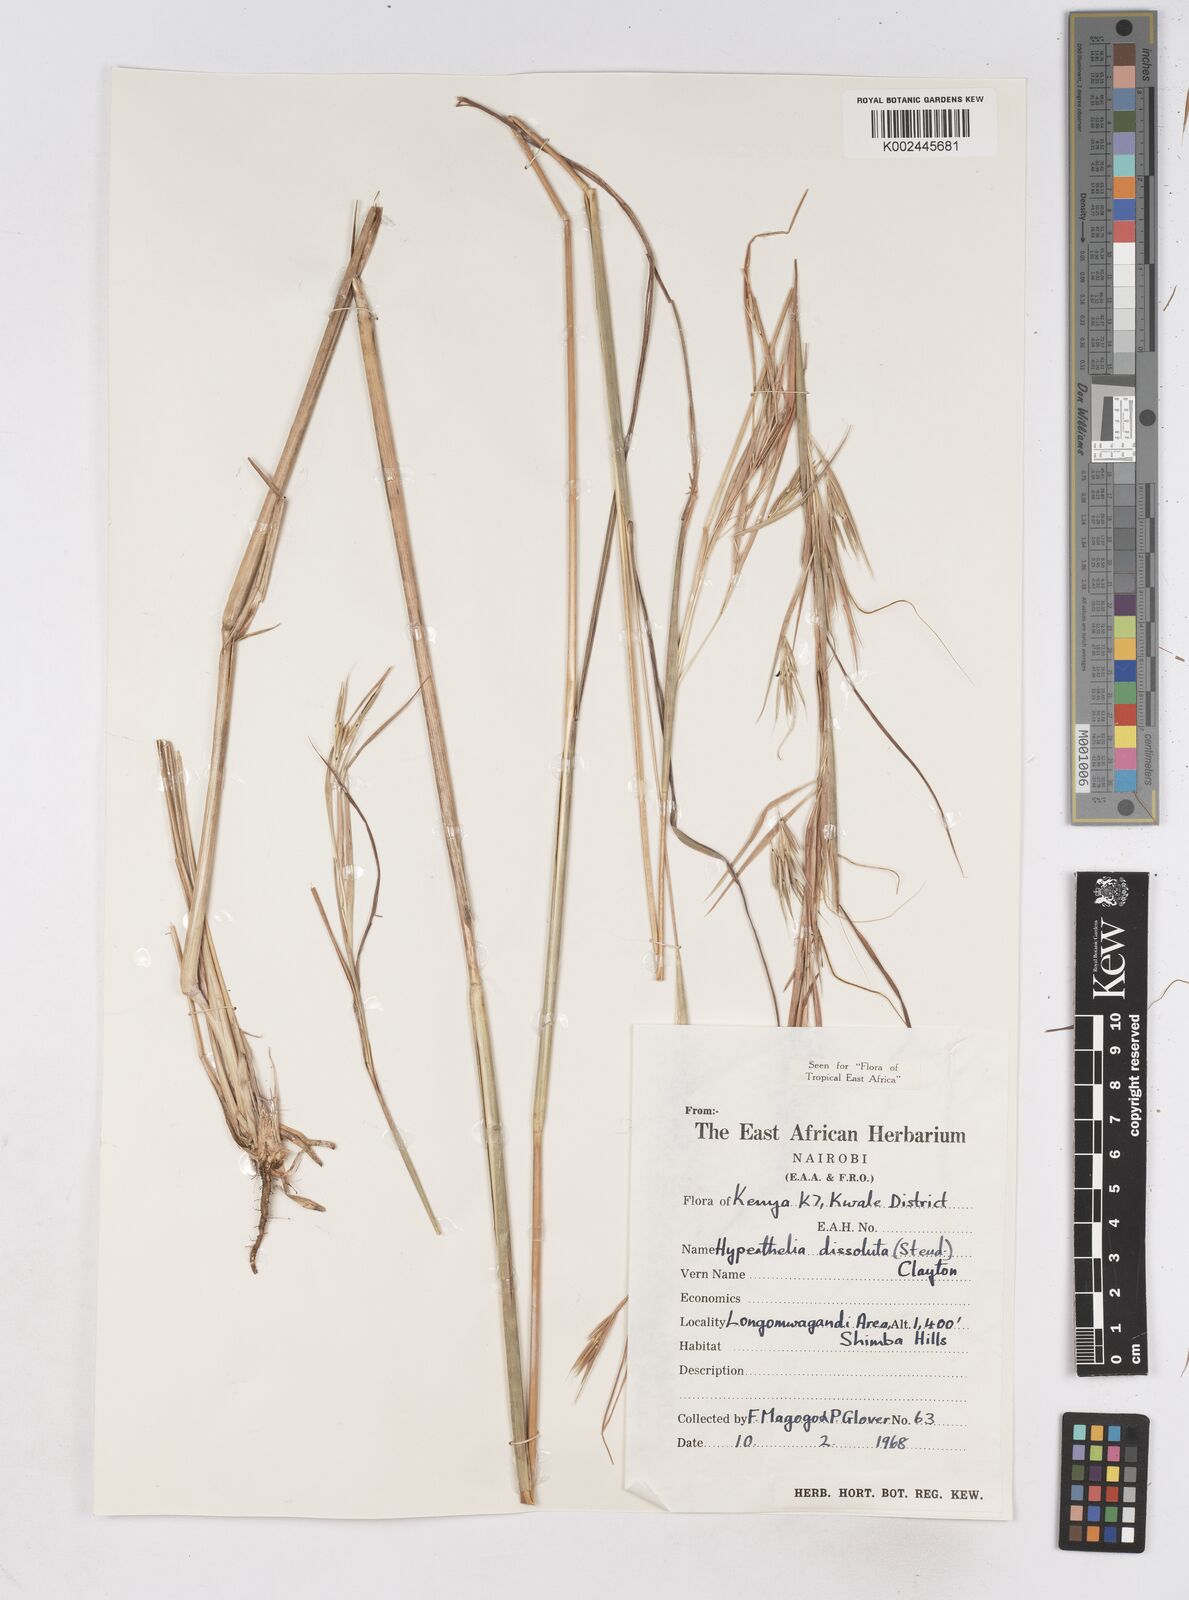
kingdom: Plantae
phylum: Tracheophyta
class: Liliopsida
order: Poales
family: Poaceae
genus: Hyperthelia
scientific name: Hyperthelia dissoluta
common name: Yellow thatching grass
